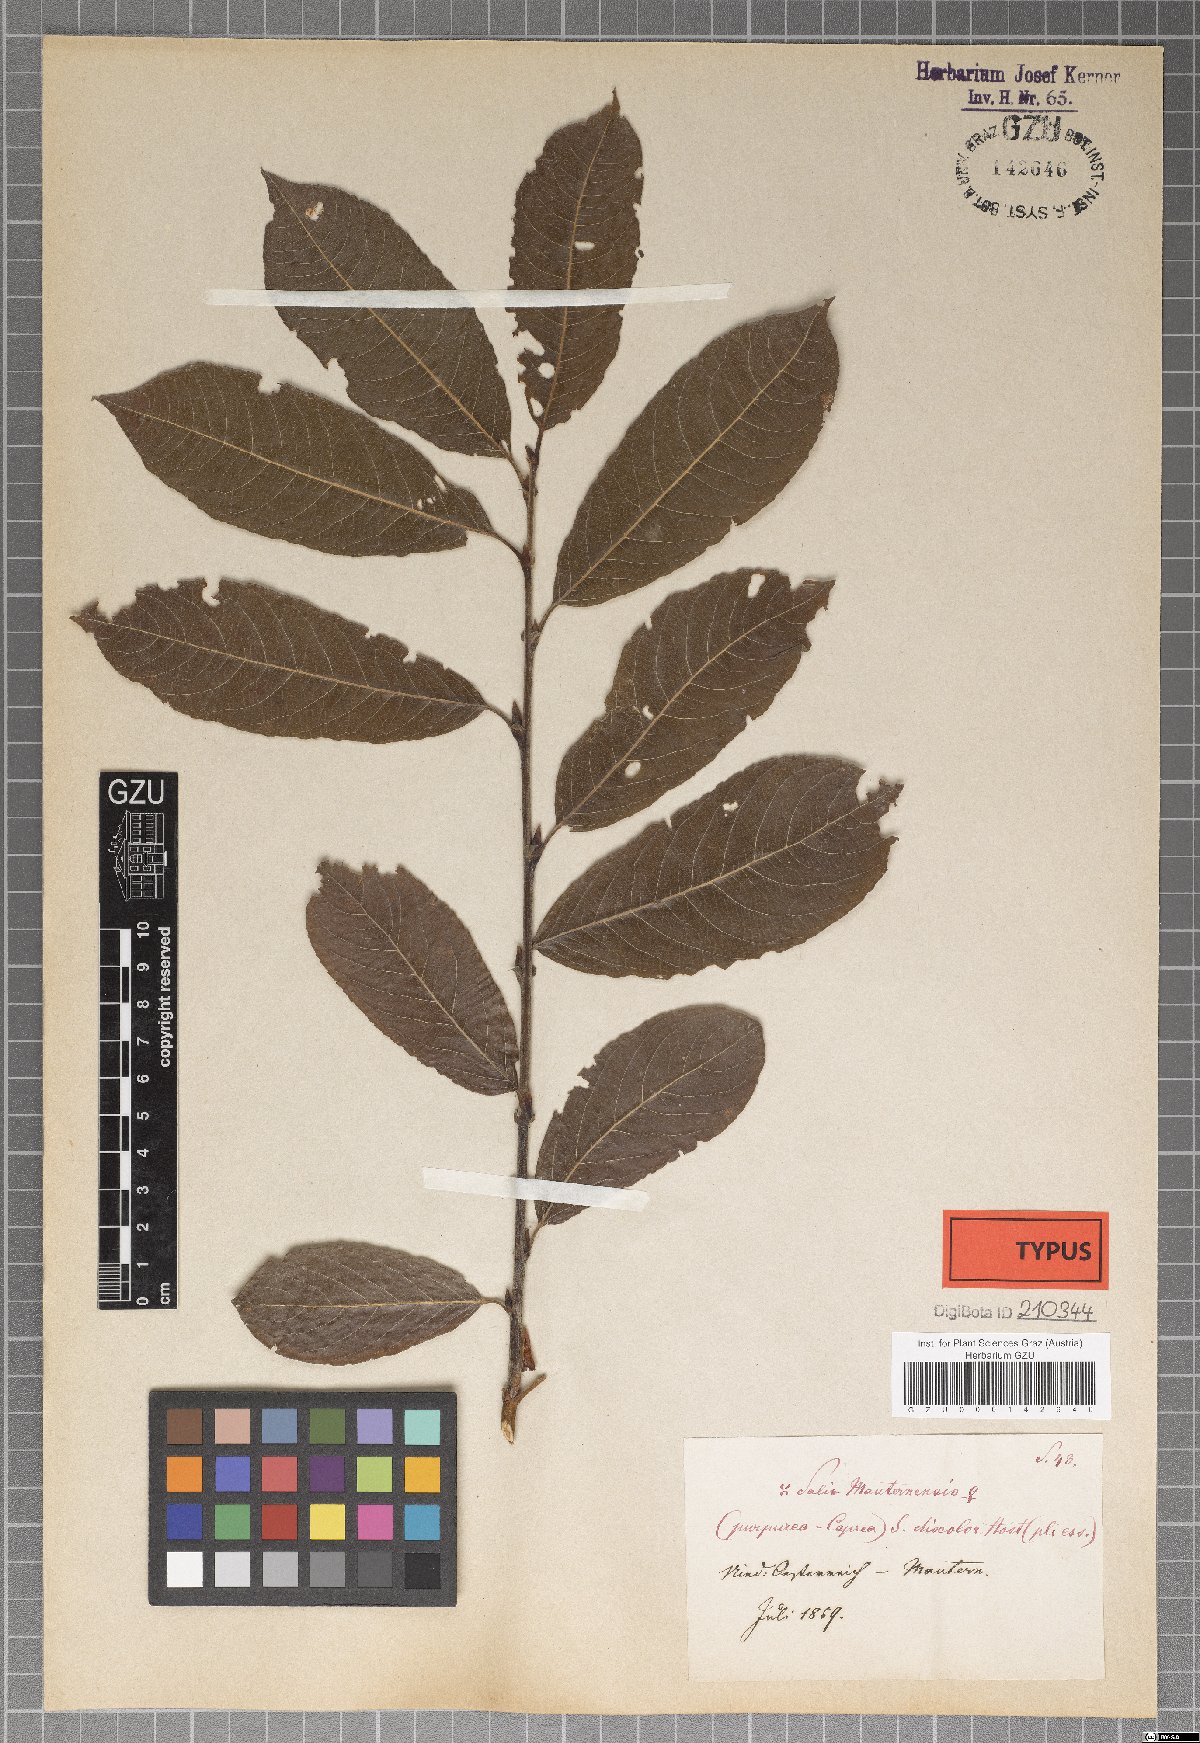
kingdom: Plantae
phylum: Tracheophyta
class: Magnoliopsida
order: Malpighiales
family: Salicaceae
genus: Salix
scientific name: Salix wimmeriana
